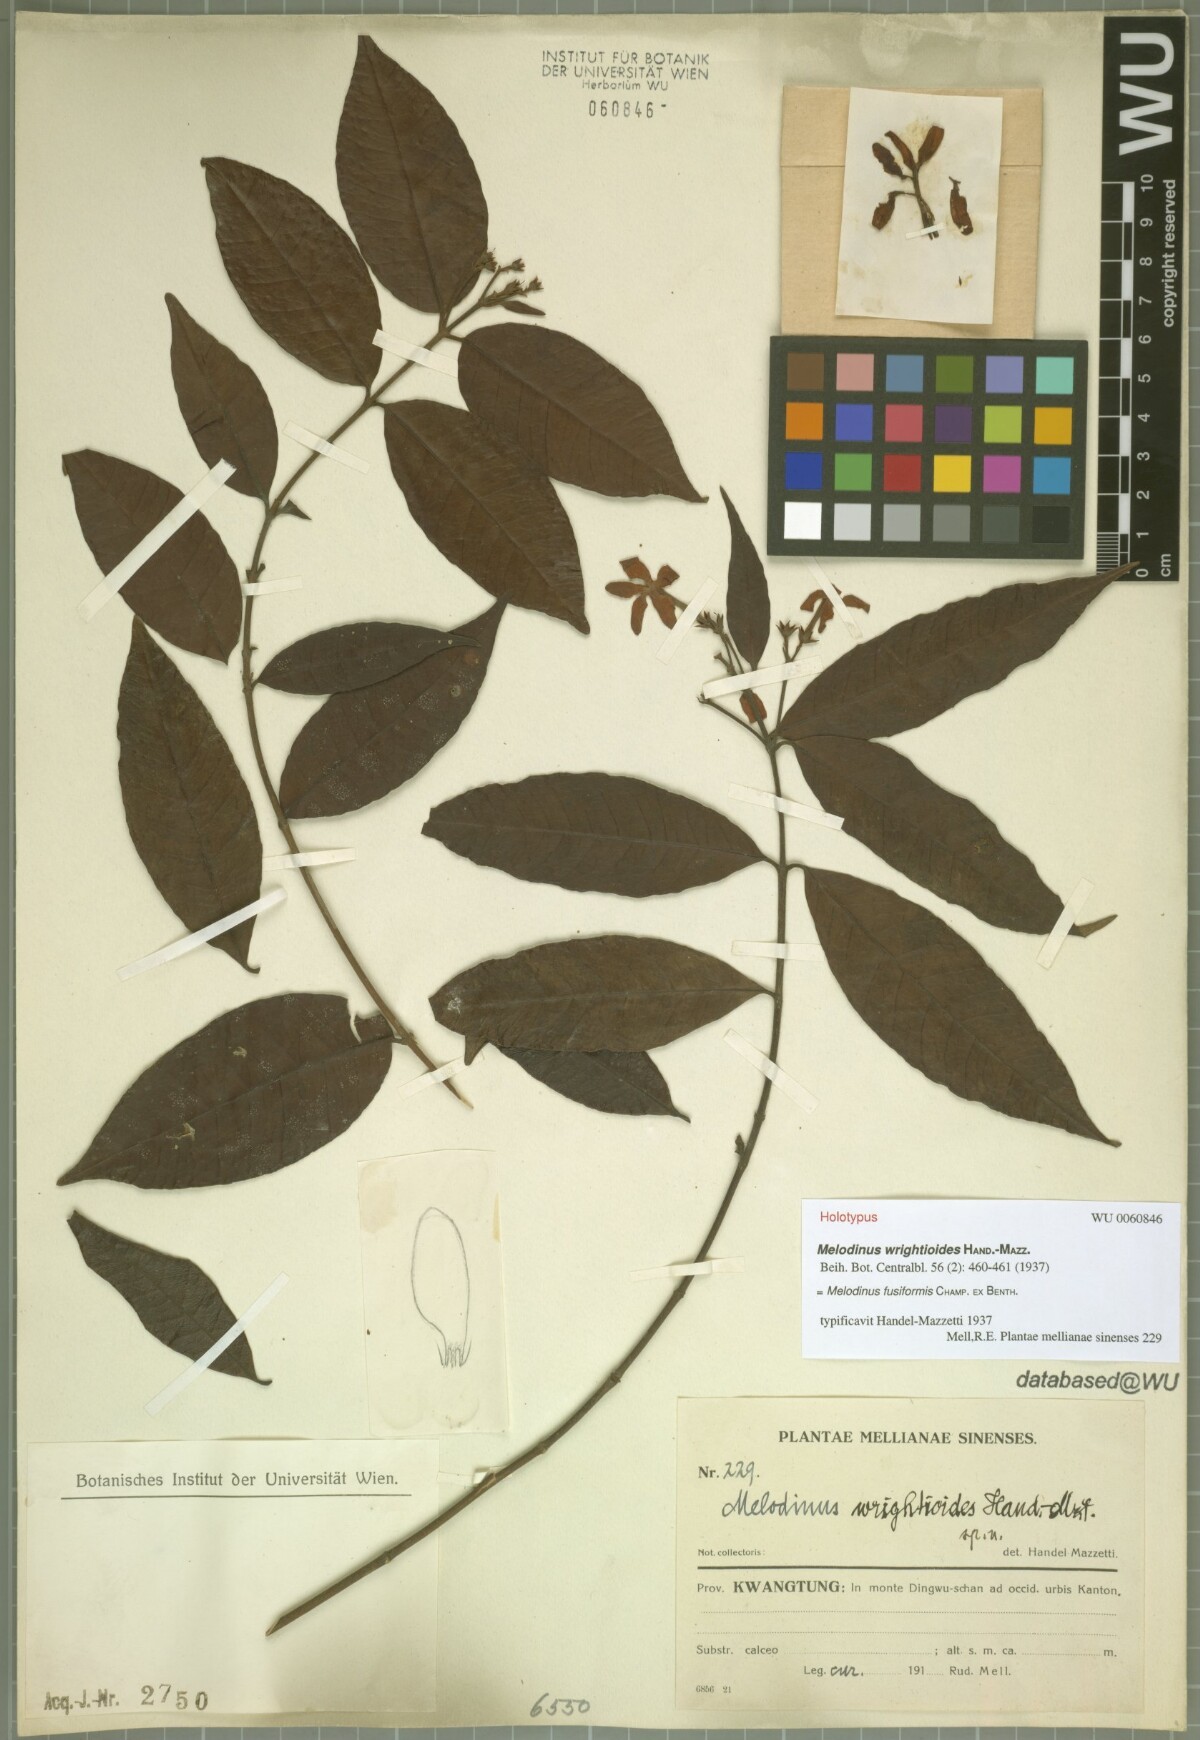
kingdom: Plantae
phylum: Tracheophyta
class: Magnoliopsida
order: Gentianales
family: Apocynaceae
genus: Melodinus
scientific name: Melodinus fusiformis
